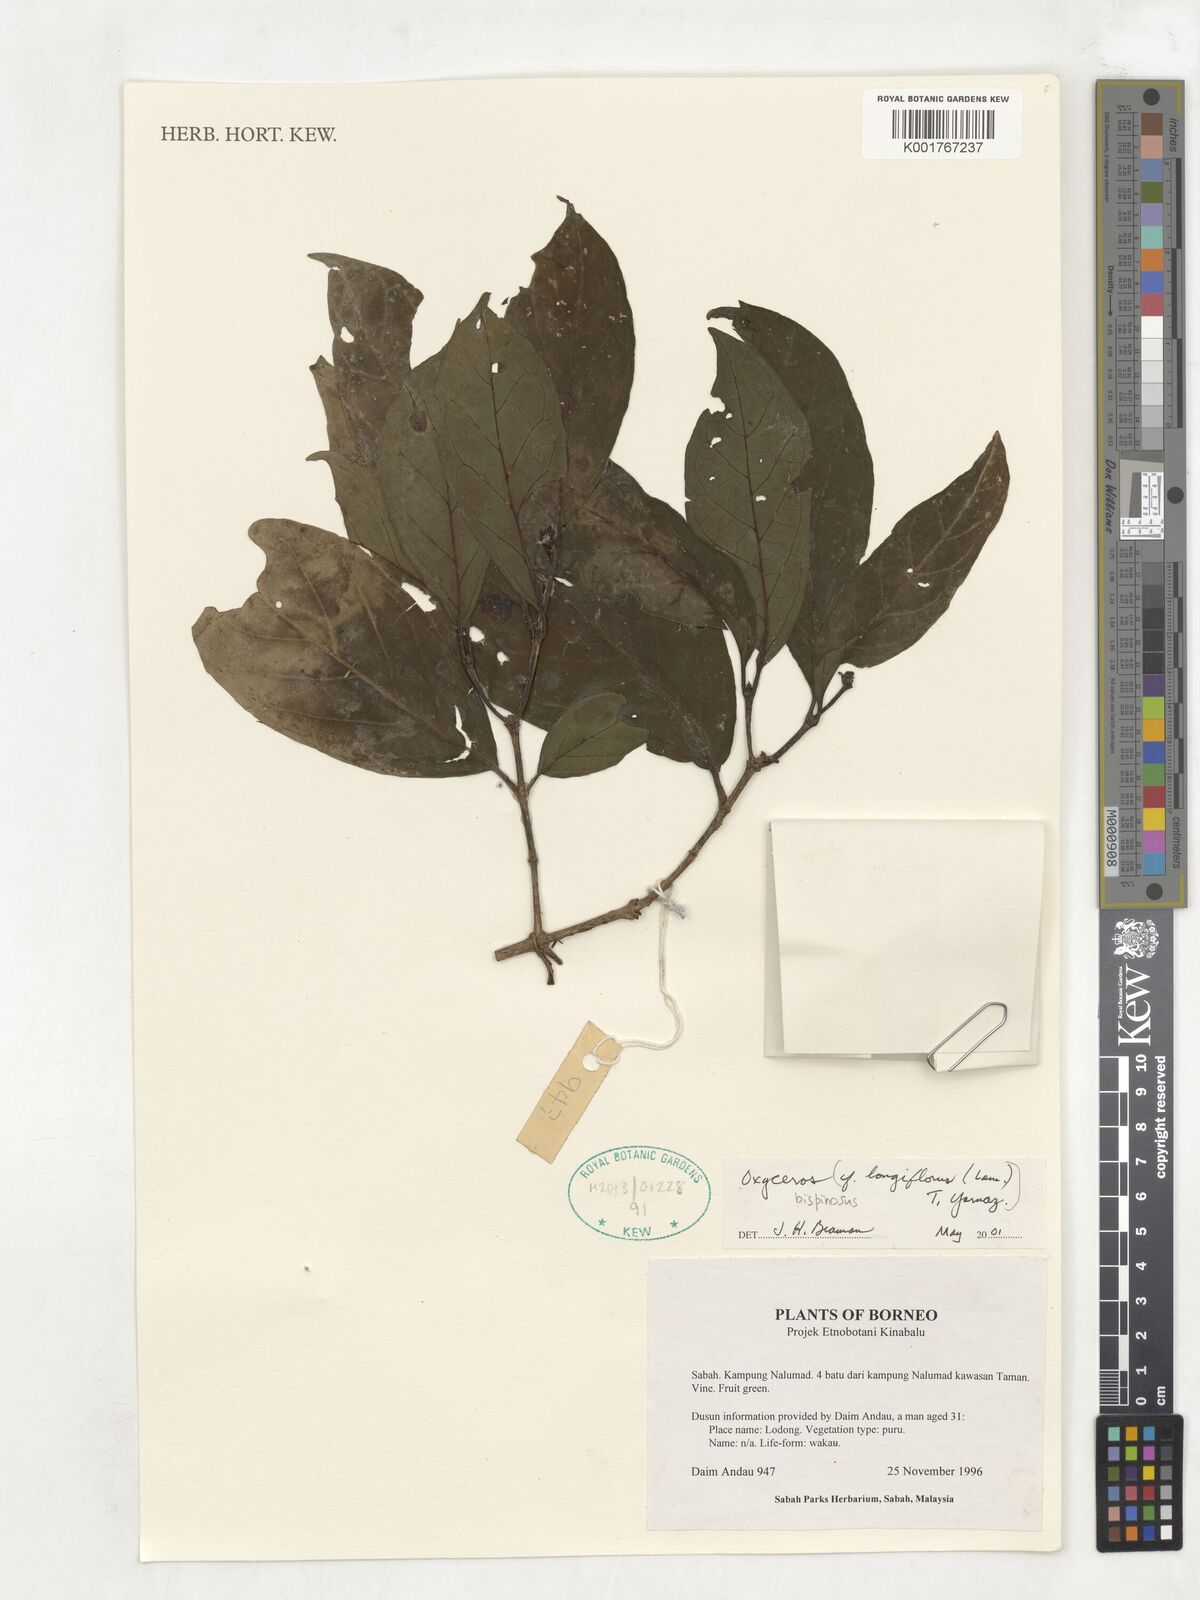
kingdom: Plantae
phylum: Tracheophyta
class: Magnoliopsida
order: Gentianales
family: Rubiaceae
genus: Oxyceros
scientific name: Oxyceros bispinosus
